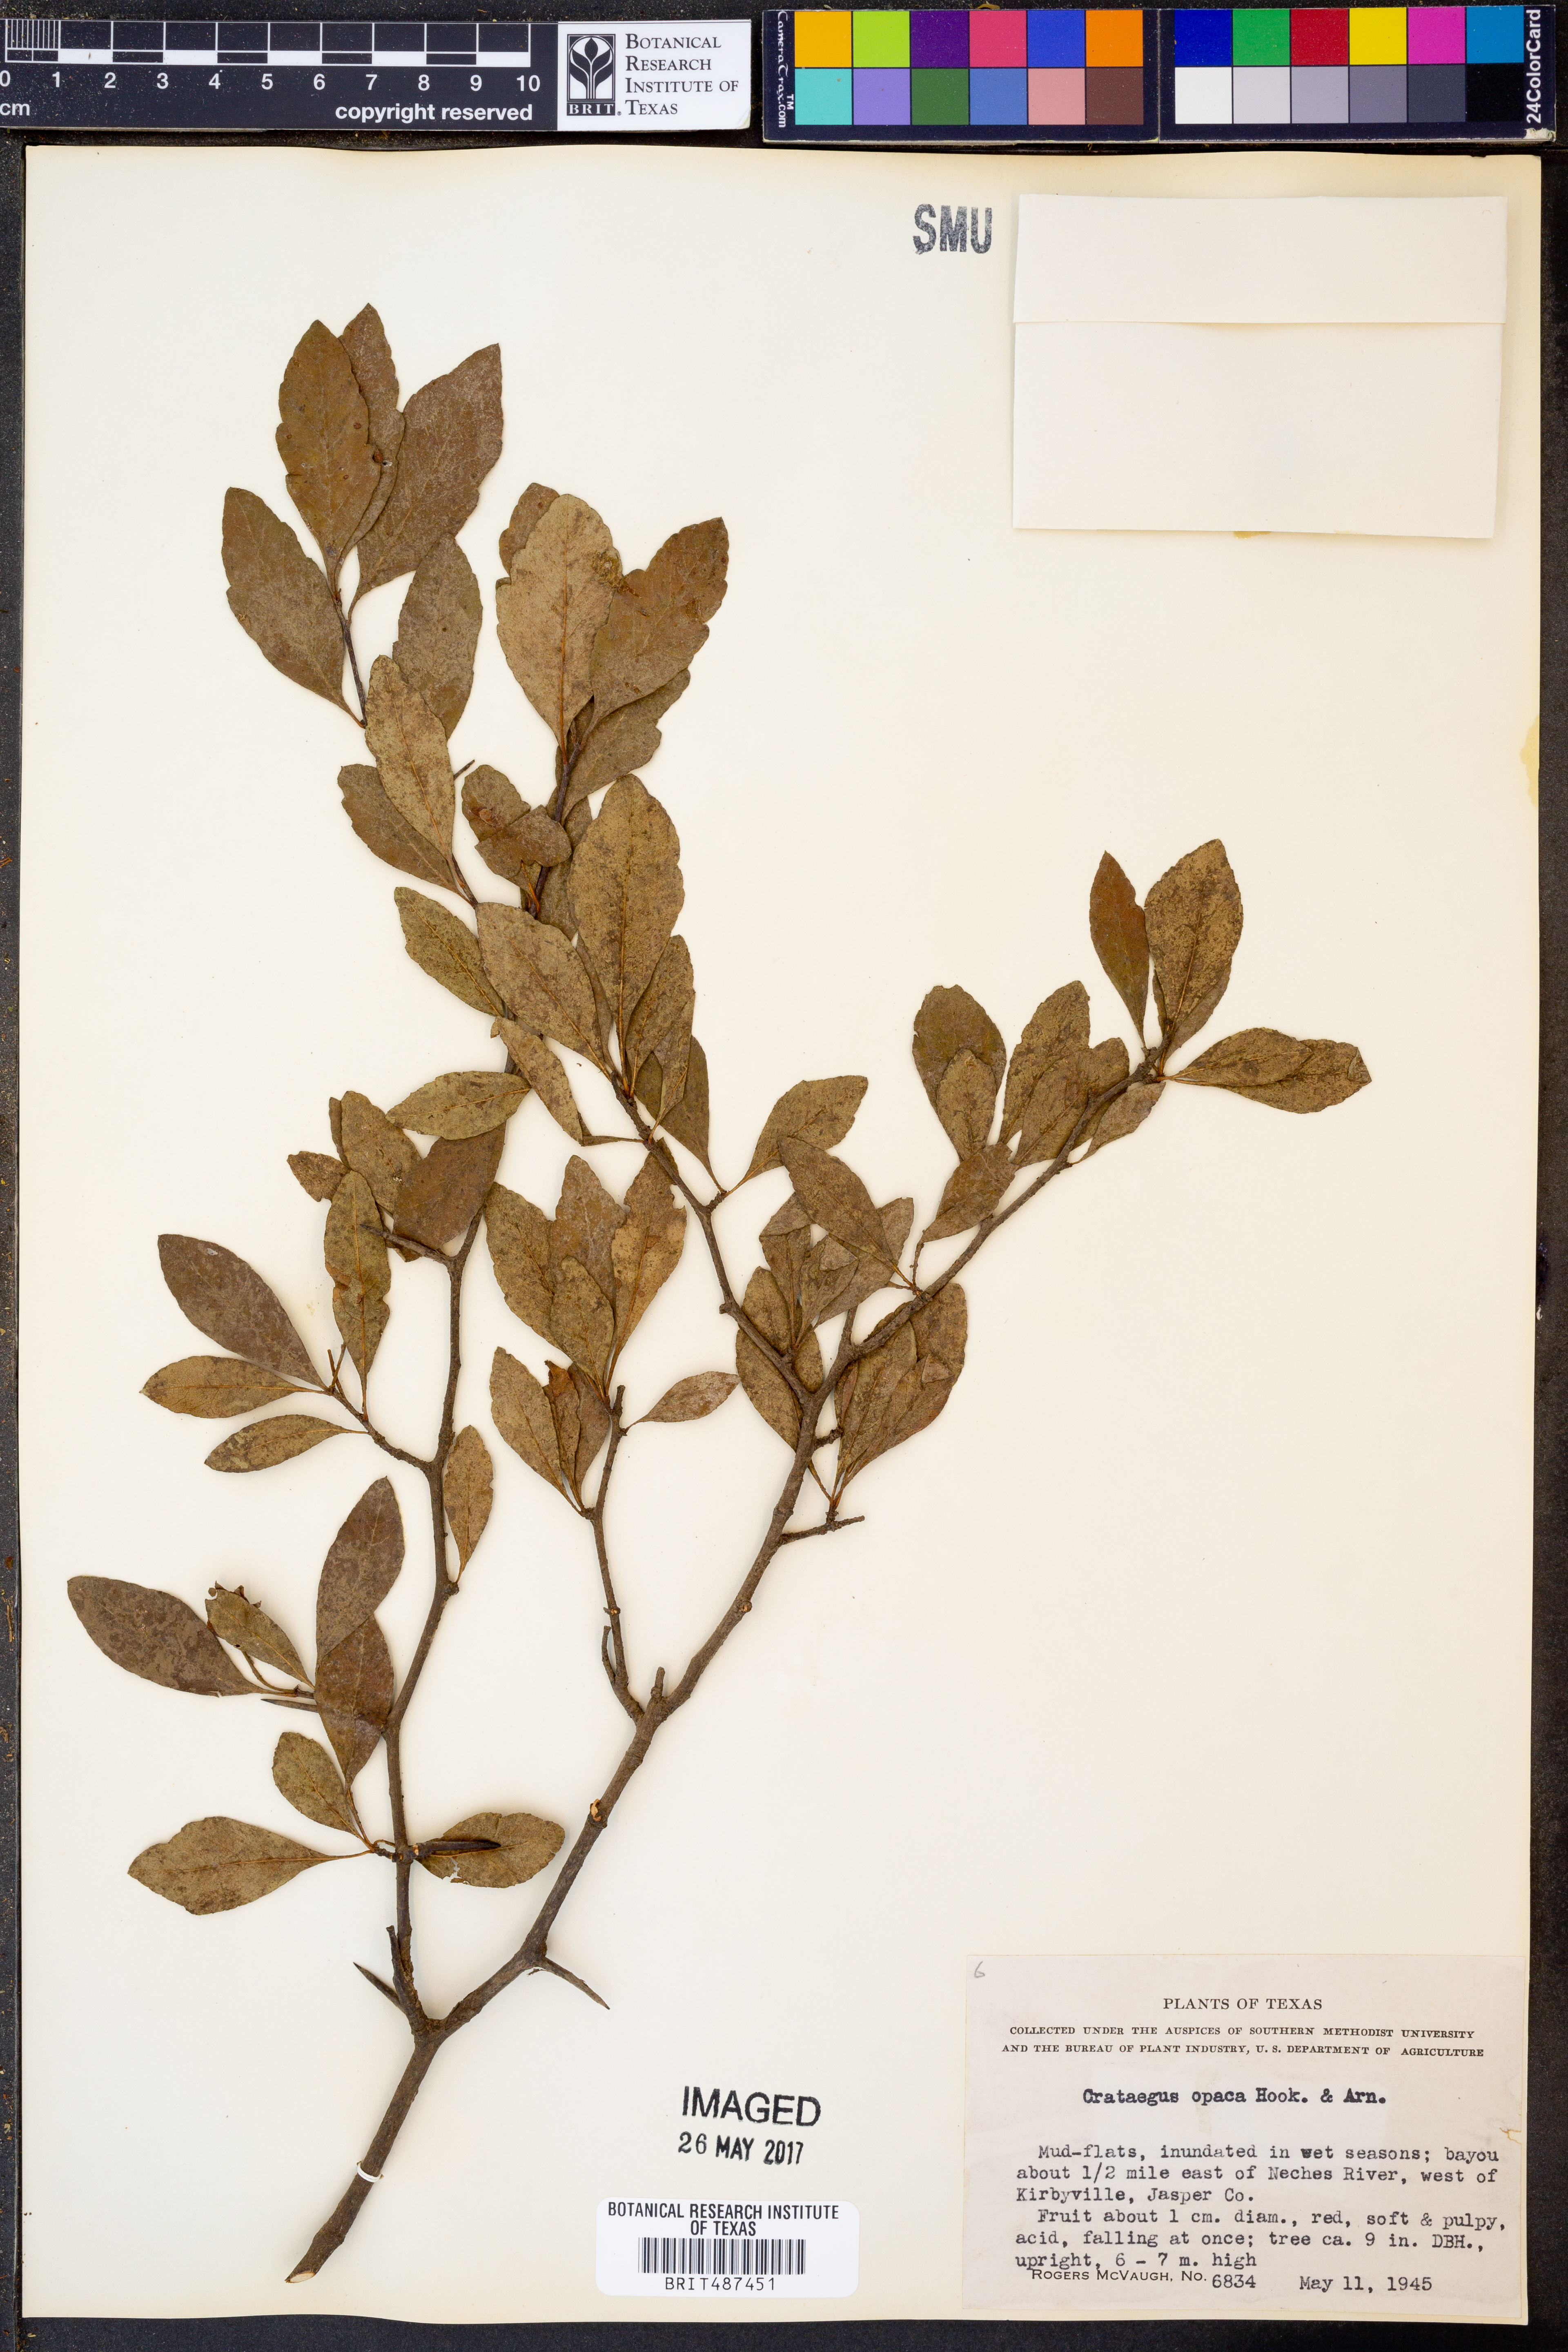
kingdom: Plantae
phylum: Tracheophyta
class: Magnoliopsida
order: Rosales
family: Rosaceae
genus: Crataegus
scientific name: Crataegus opaca
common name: Apple haw
